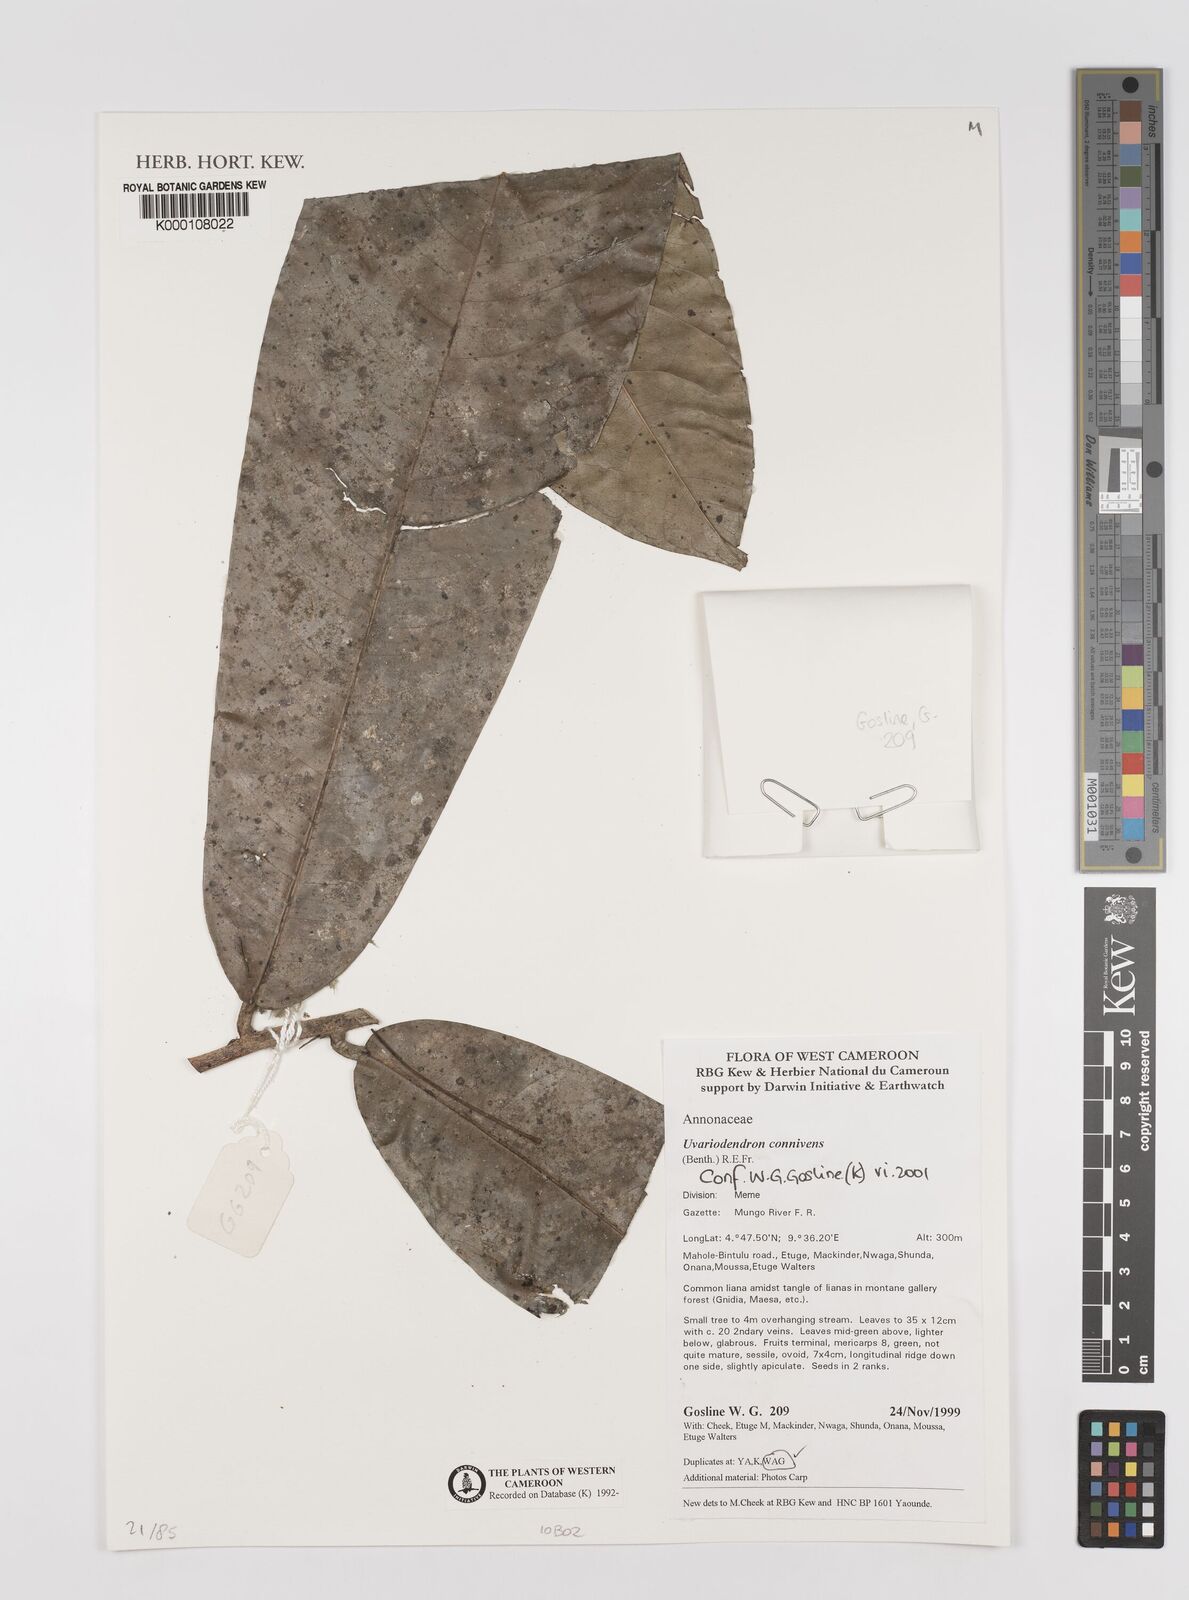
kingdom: Plantae
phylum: Tracheophyta
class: Magnoliopsida
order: Magnoliales
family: Annonaceae
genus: Uvariodendron
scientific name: Uvariodendron connivens
